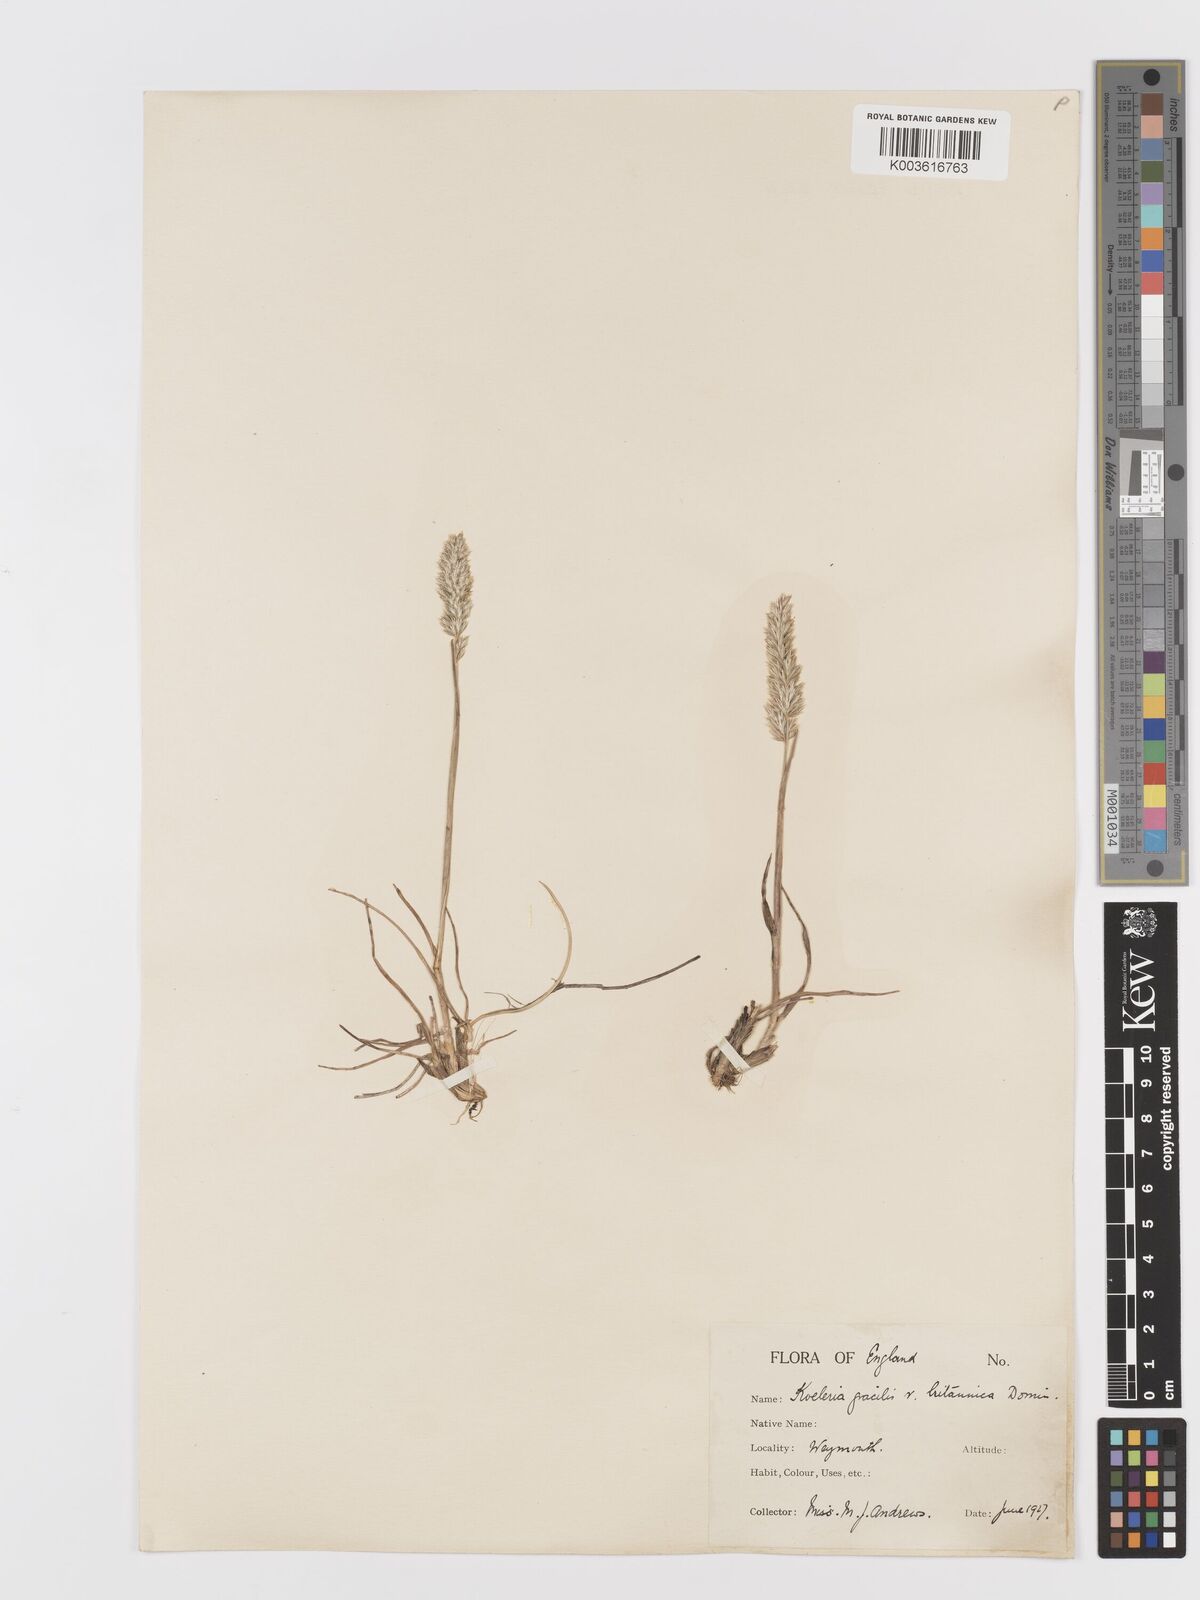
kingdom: Plantae
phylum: Tracheophyta
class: Liliopsida
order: Poales
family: Poaceae
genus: Koeleria
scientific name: Koeleria
